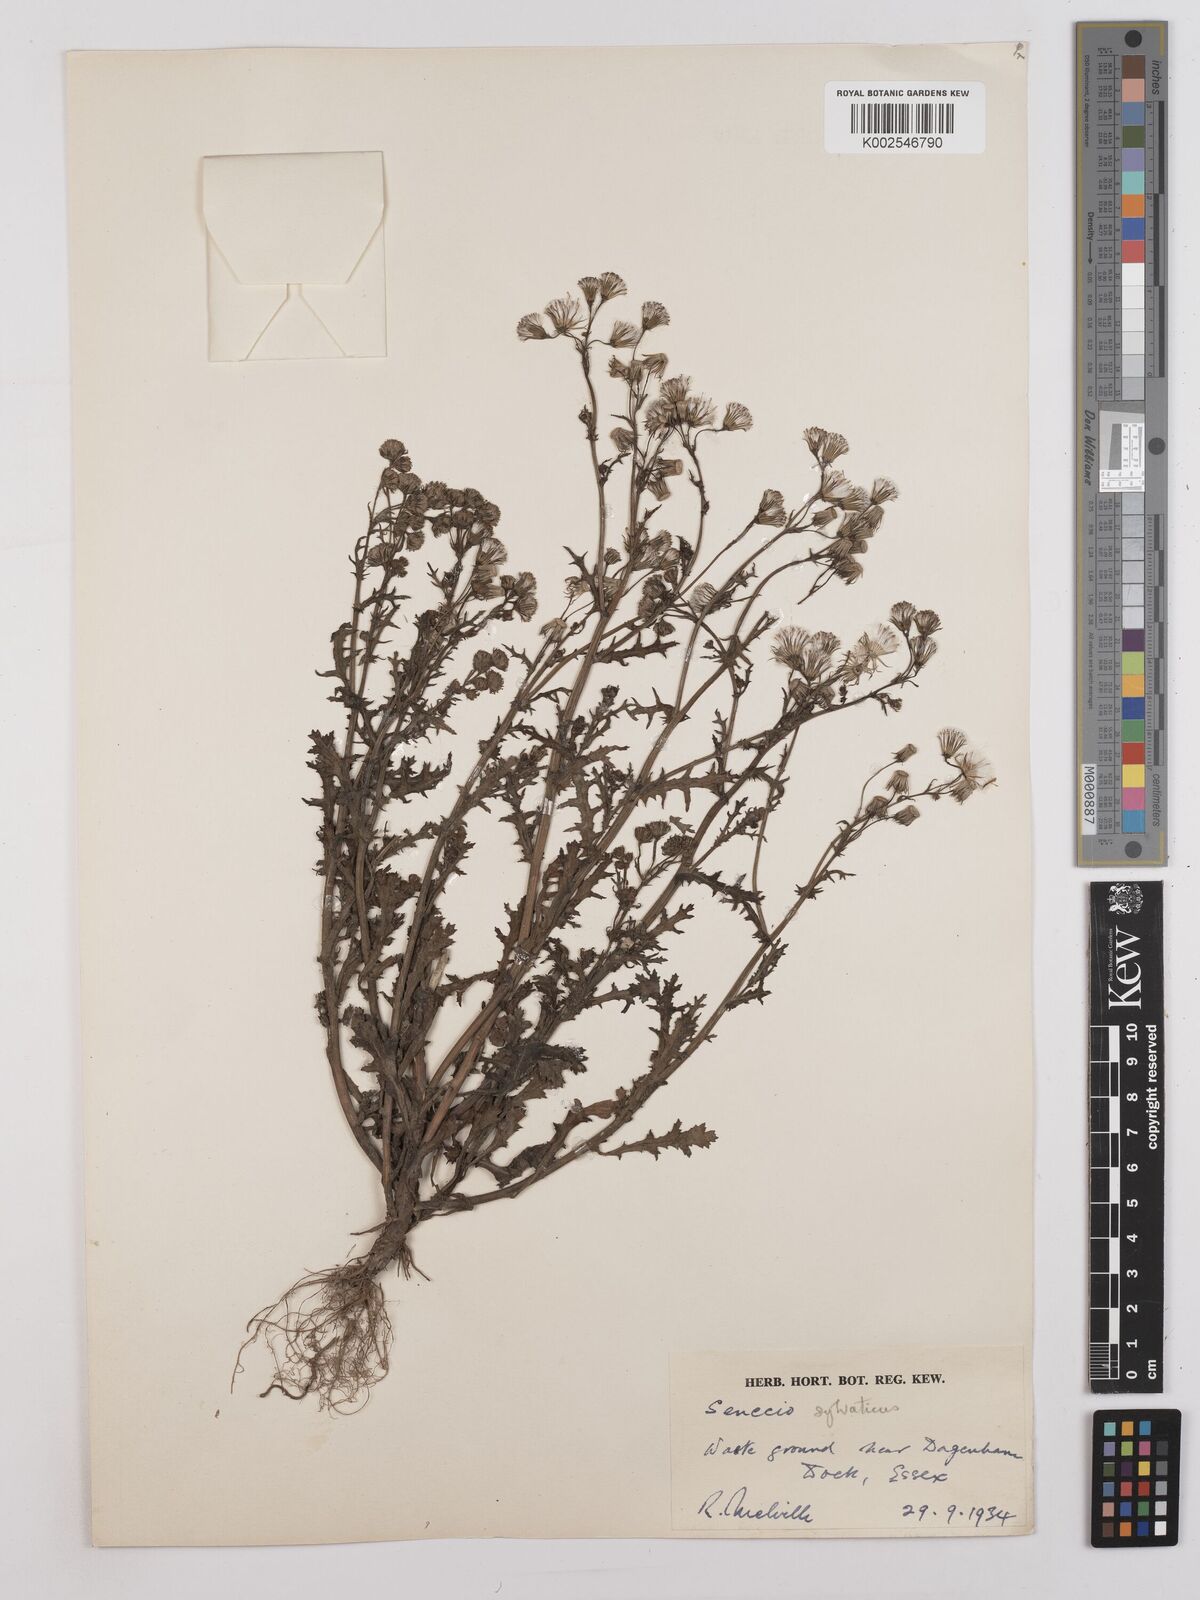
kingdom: Plantae
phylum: Tracheophyta
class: Magnoliopsida
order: Asterales
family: Asteraceae
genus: Senecio
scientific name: Senecio sylvaticus
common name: Woodland ragwort
